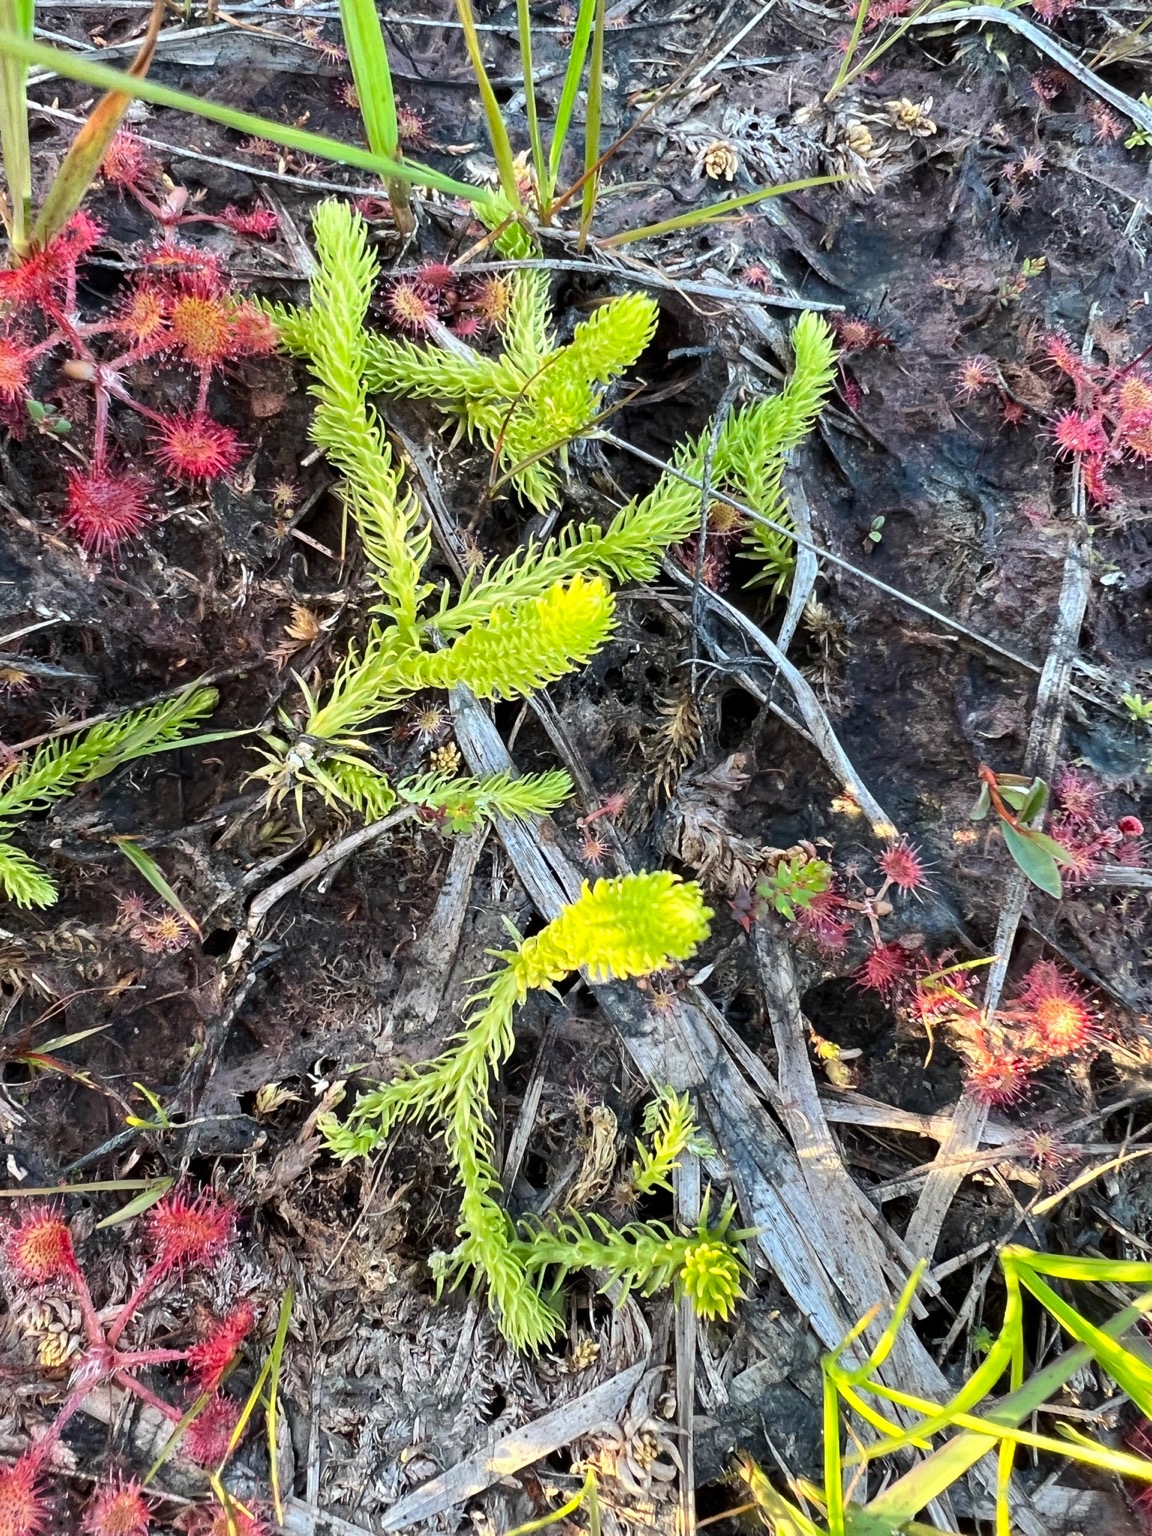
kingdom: Plantae
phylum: Tracheophyta
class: Lycopodiopsida
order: Lycopodiales
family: Lycopodiaceae
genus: Lycopodiella
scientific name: Lycopodiella inundata
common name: Liden ulvefod
